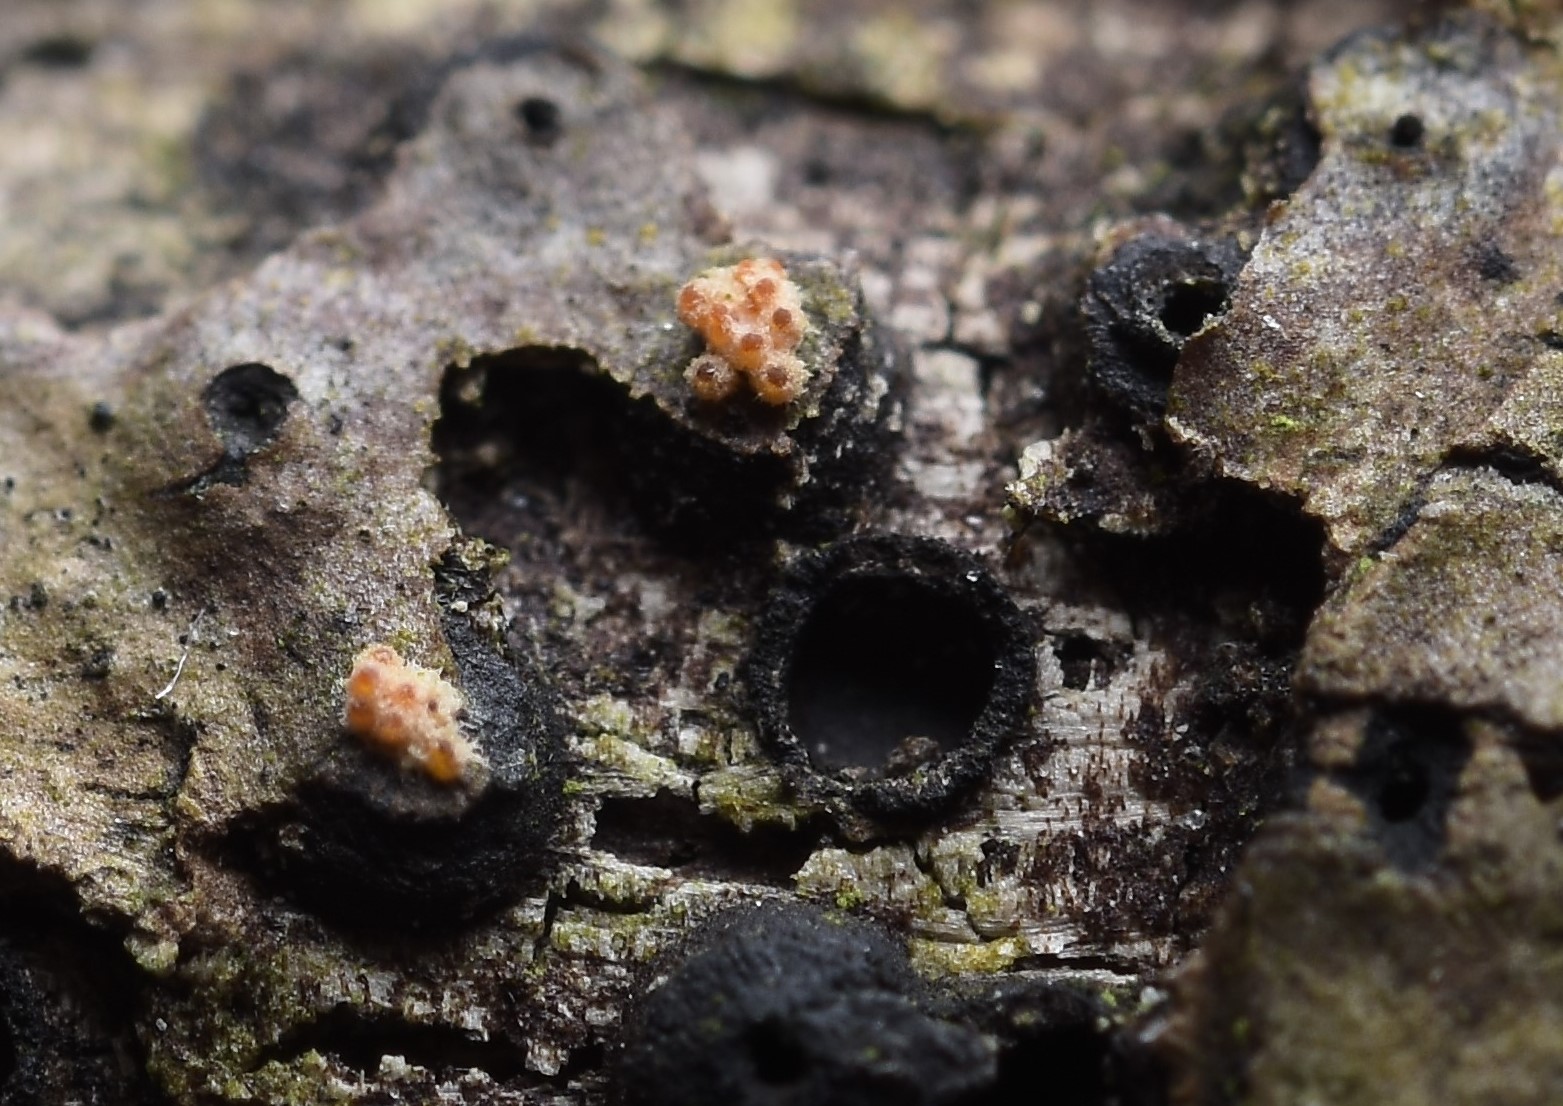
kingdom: Fungi
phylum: Ascomycota
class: Sordariomycetes
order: Hypocreales
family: Flammocladiellaceae
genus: Flammocladiella
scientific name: Flammocladiella decora
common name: kulvulkan-cinnobersvamp
